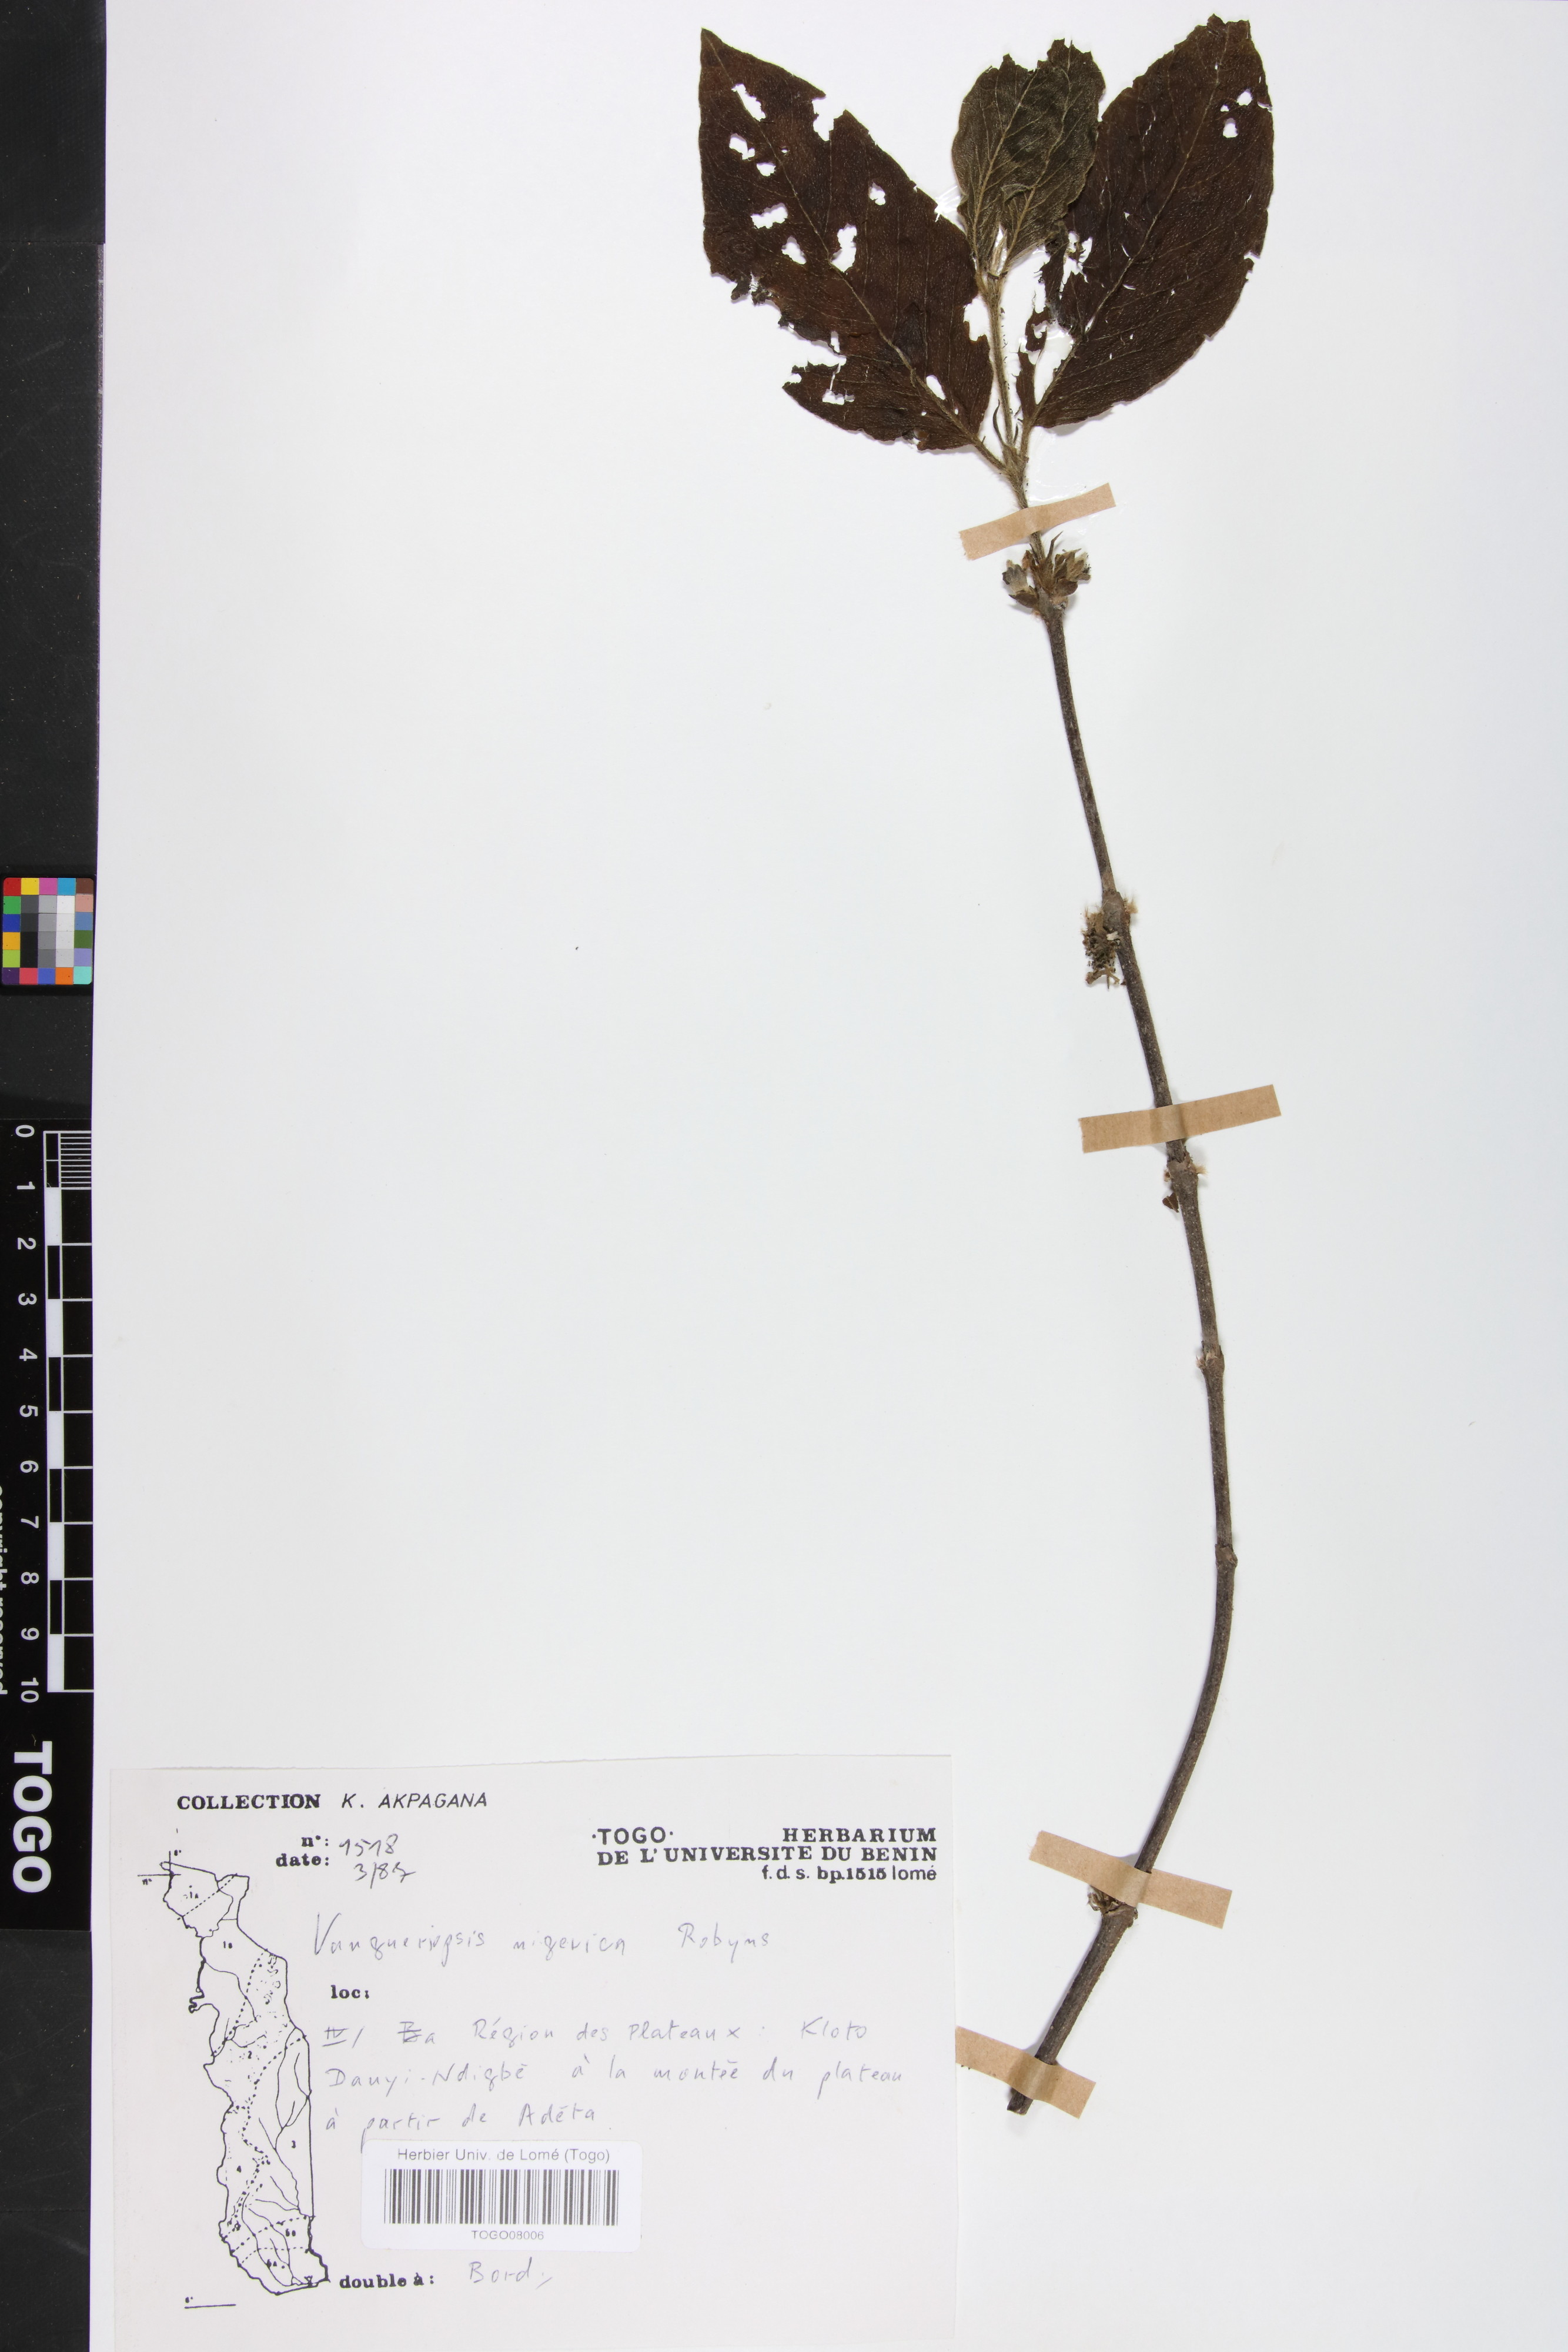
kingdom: Plantae
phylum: Tracheophyta
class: Magnoliopsida
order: Gentianales
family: Rubiaceae
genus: Vangueriella
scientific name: Vangueriella nigerica
